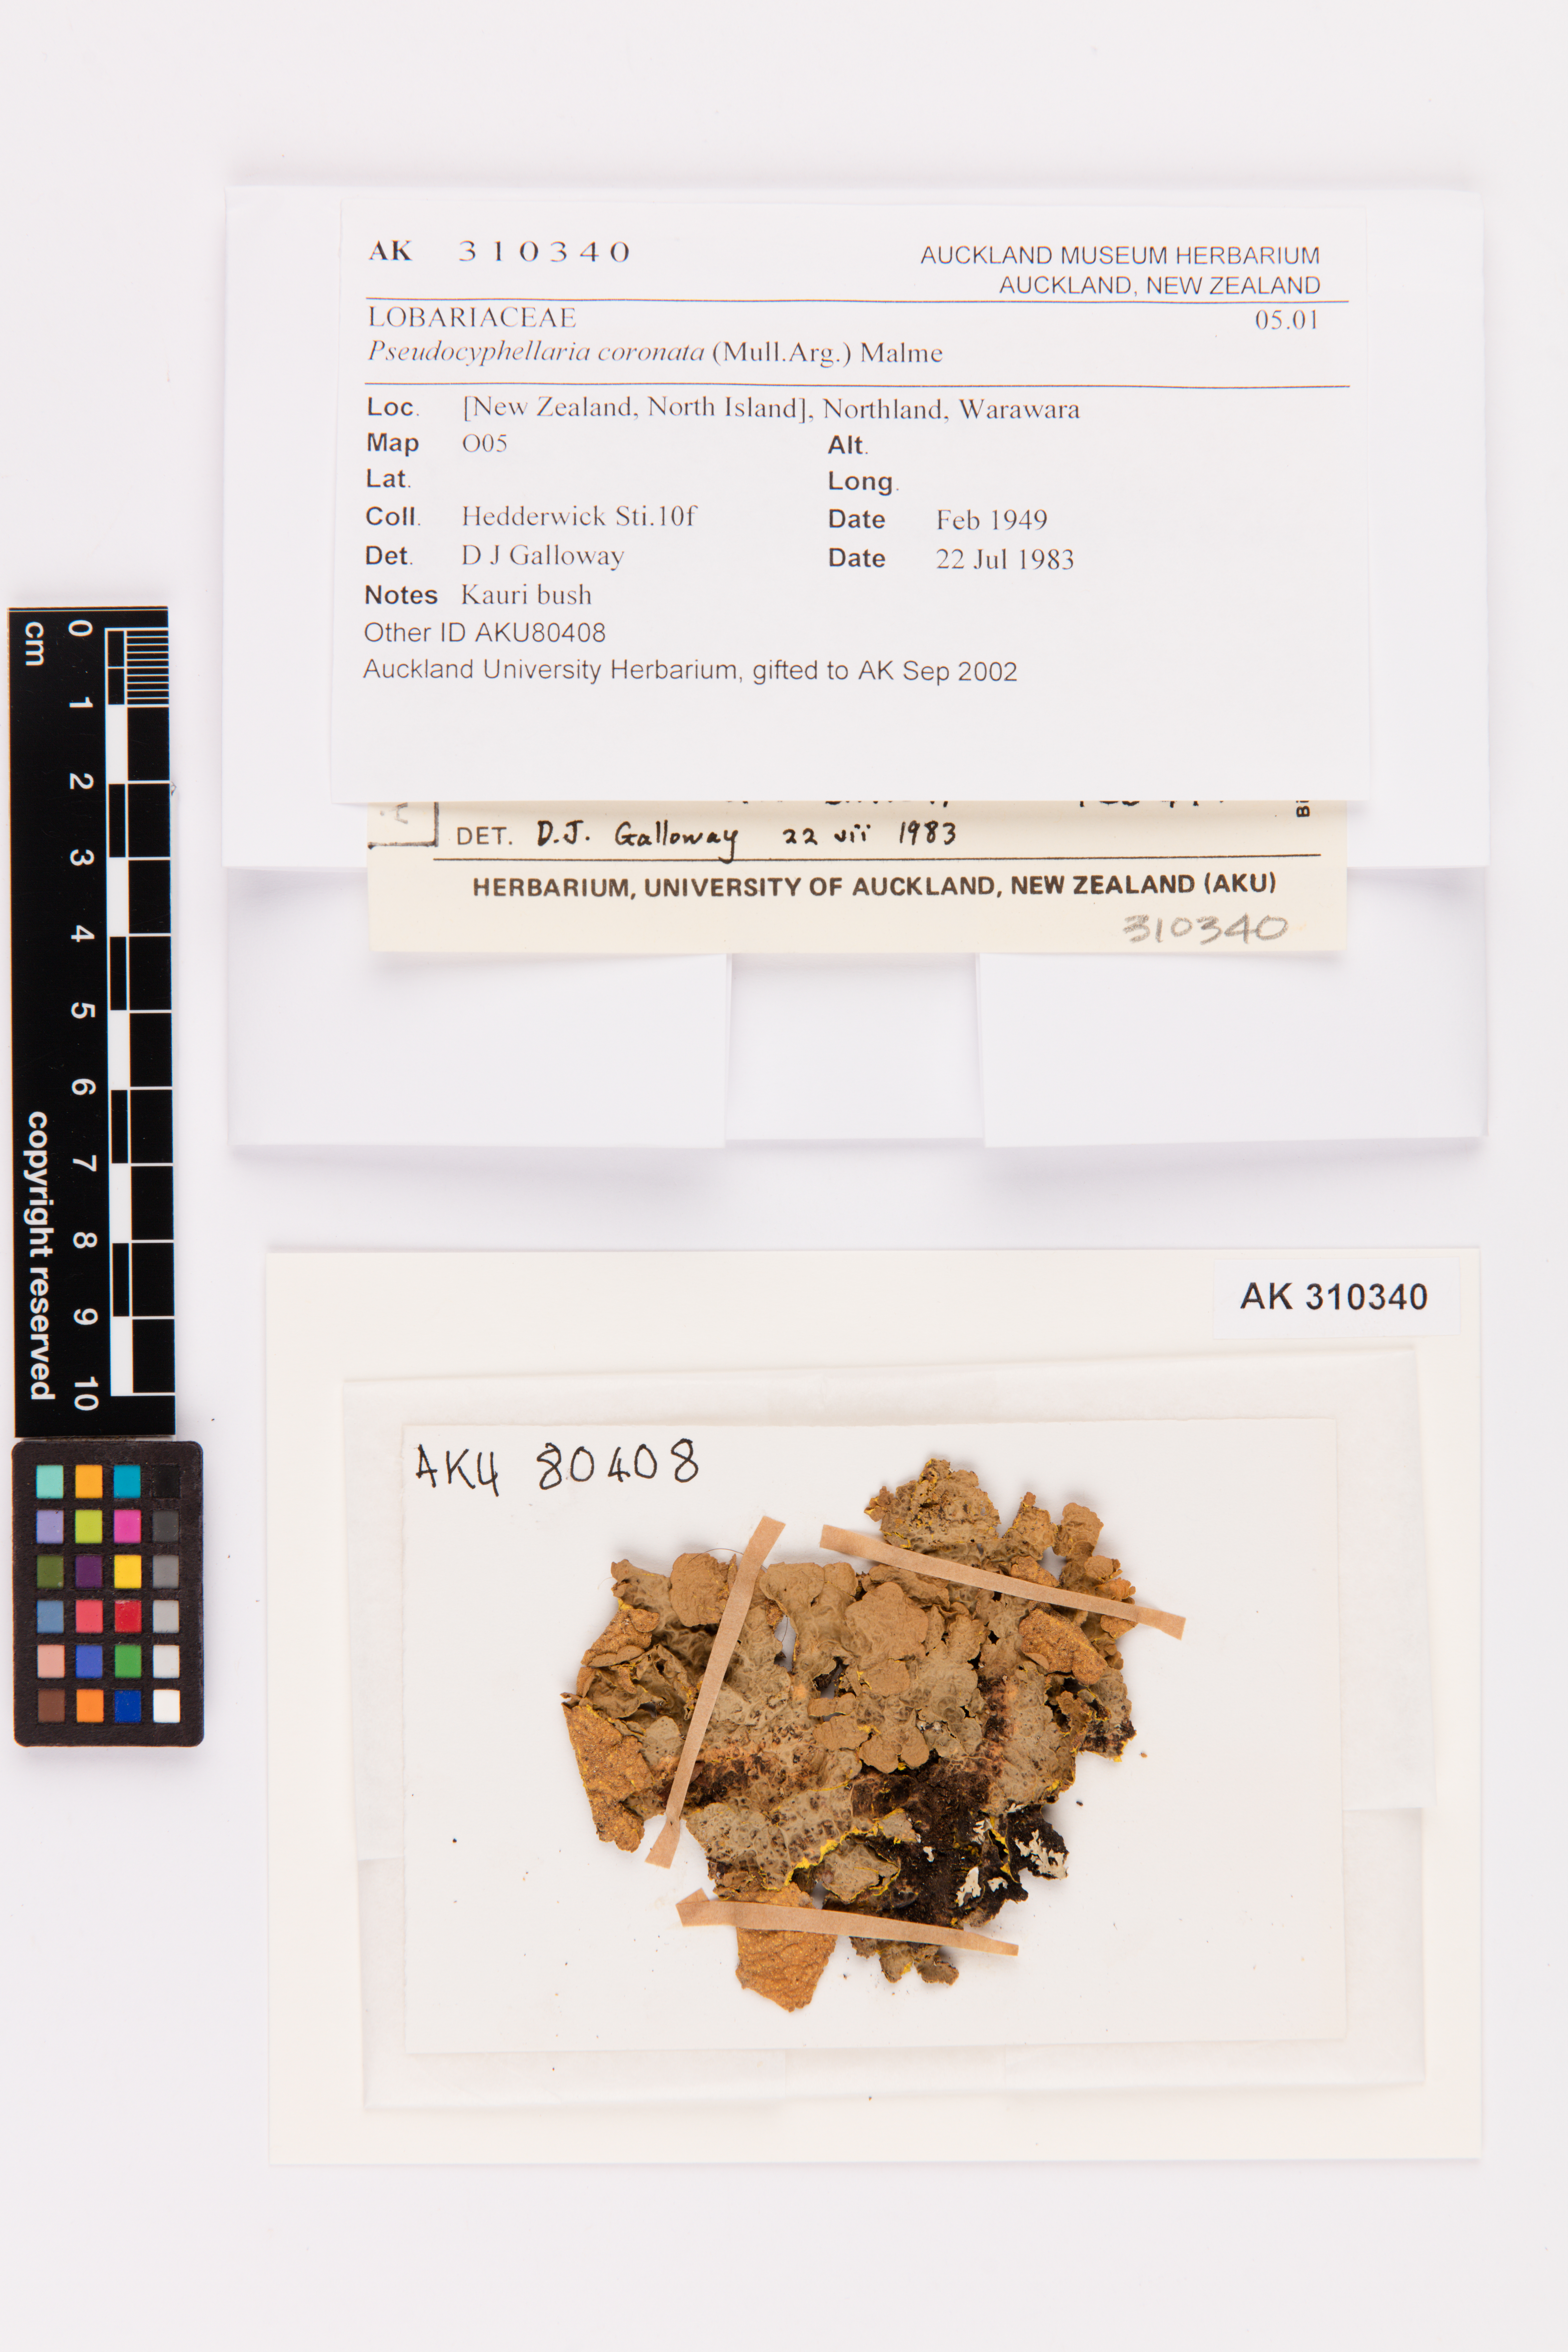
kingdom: Fungi
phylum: Ascomycota
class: Lecanoromycetes
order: Peltigerales
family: Lobariaceae
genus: Yarrumia
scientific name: Yarrumia coronata
